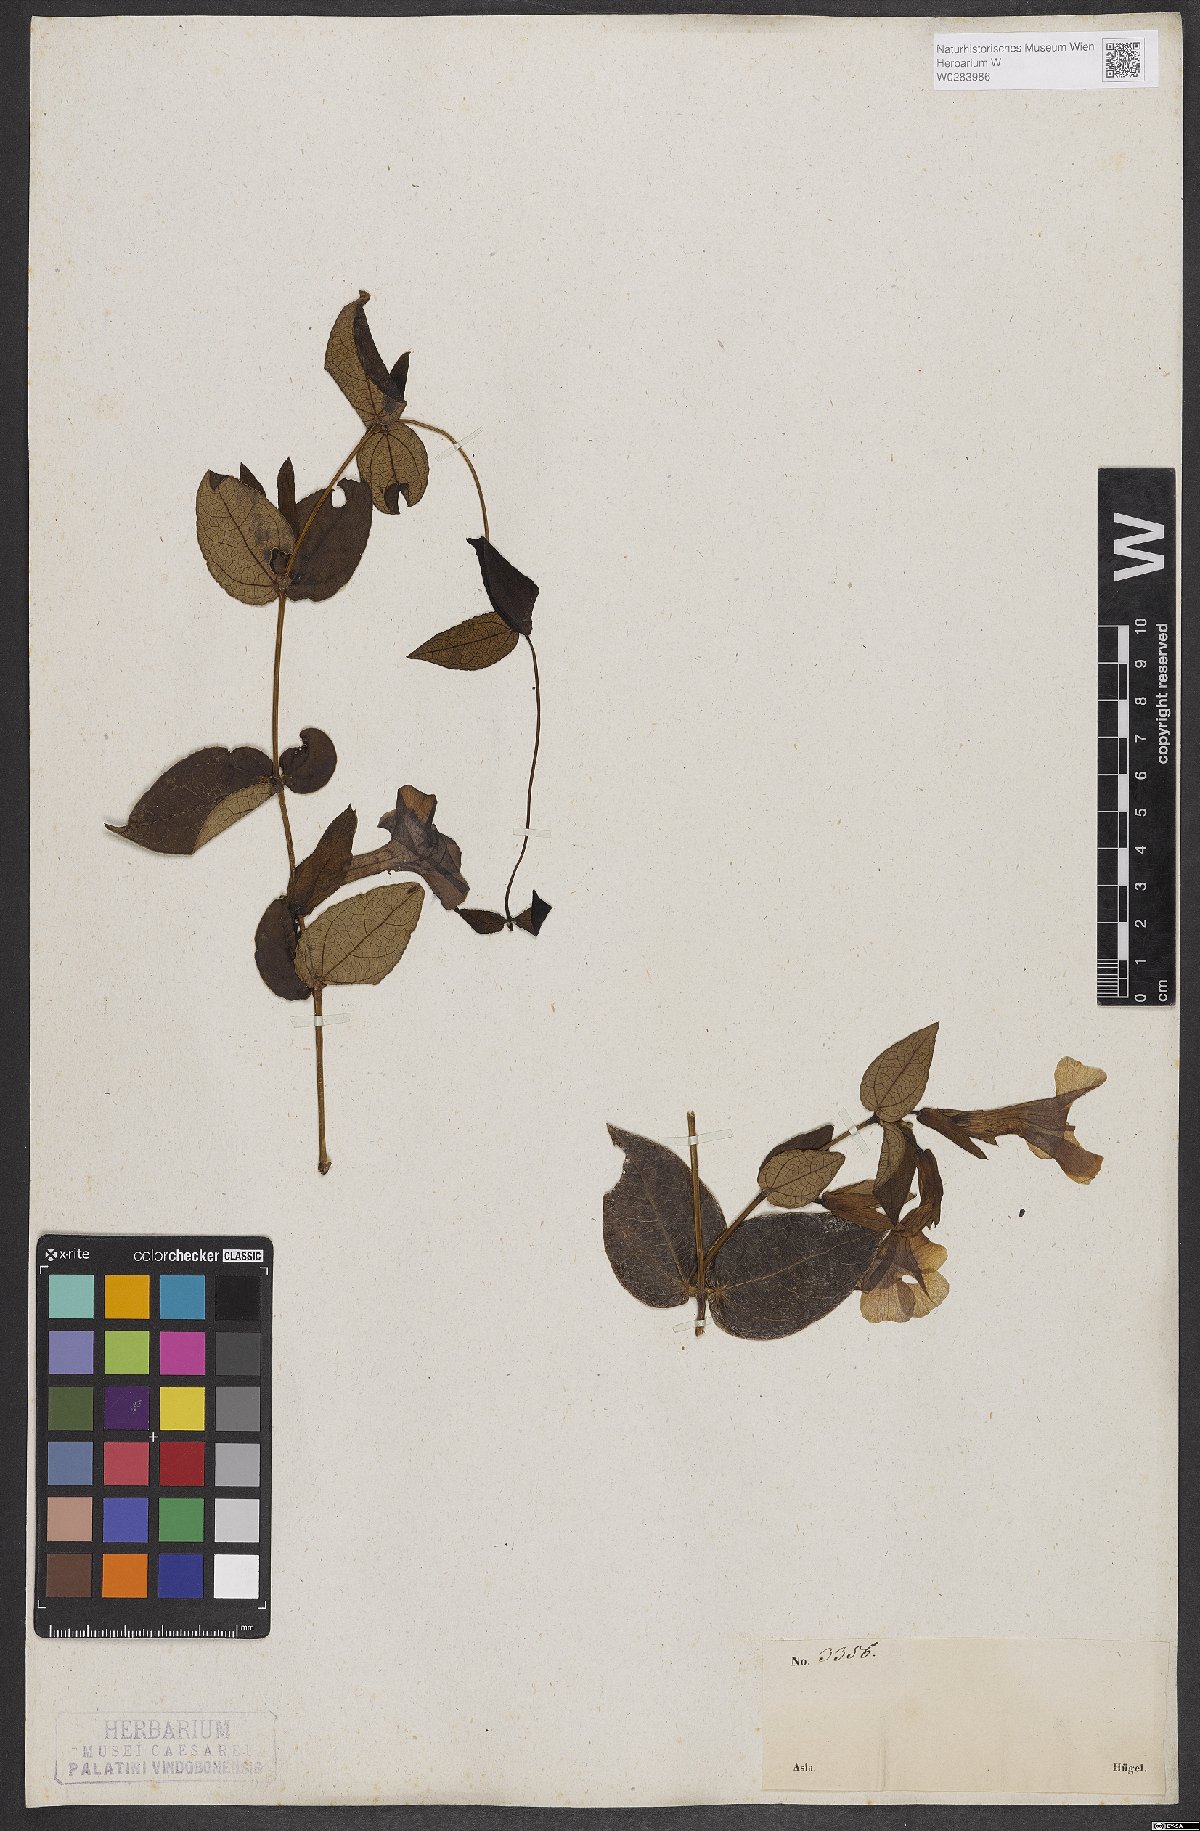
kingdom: Plantae
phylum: Tracheophyta
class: Magnoliopsida
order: Lamiales
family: Acanthaceae
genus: Meyenia
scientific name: Meyenia hawtayneana
